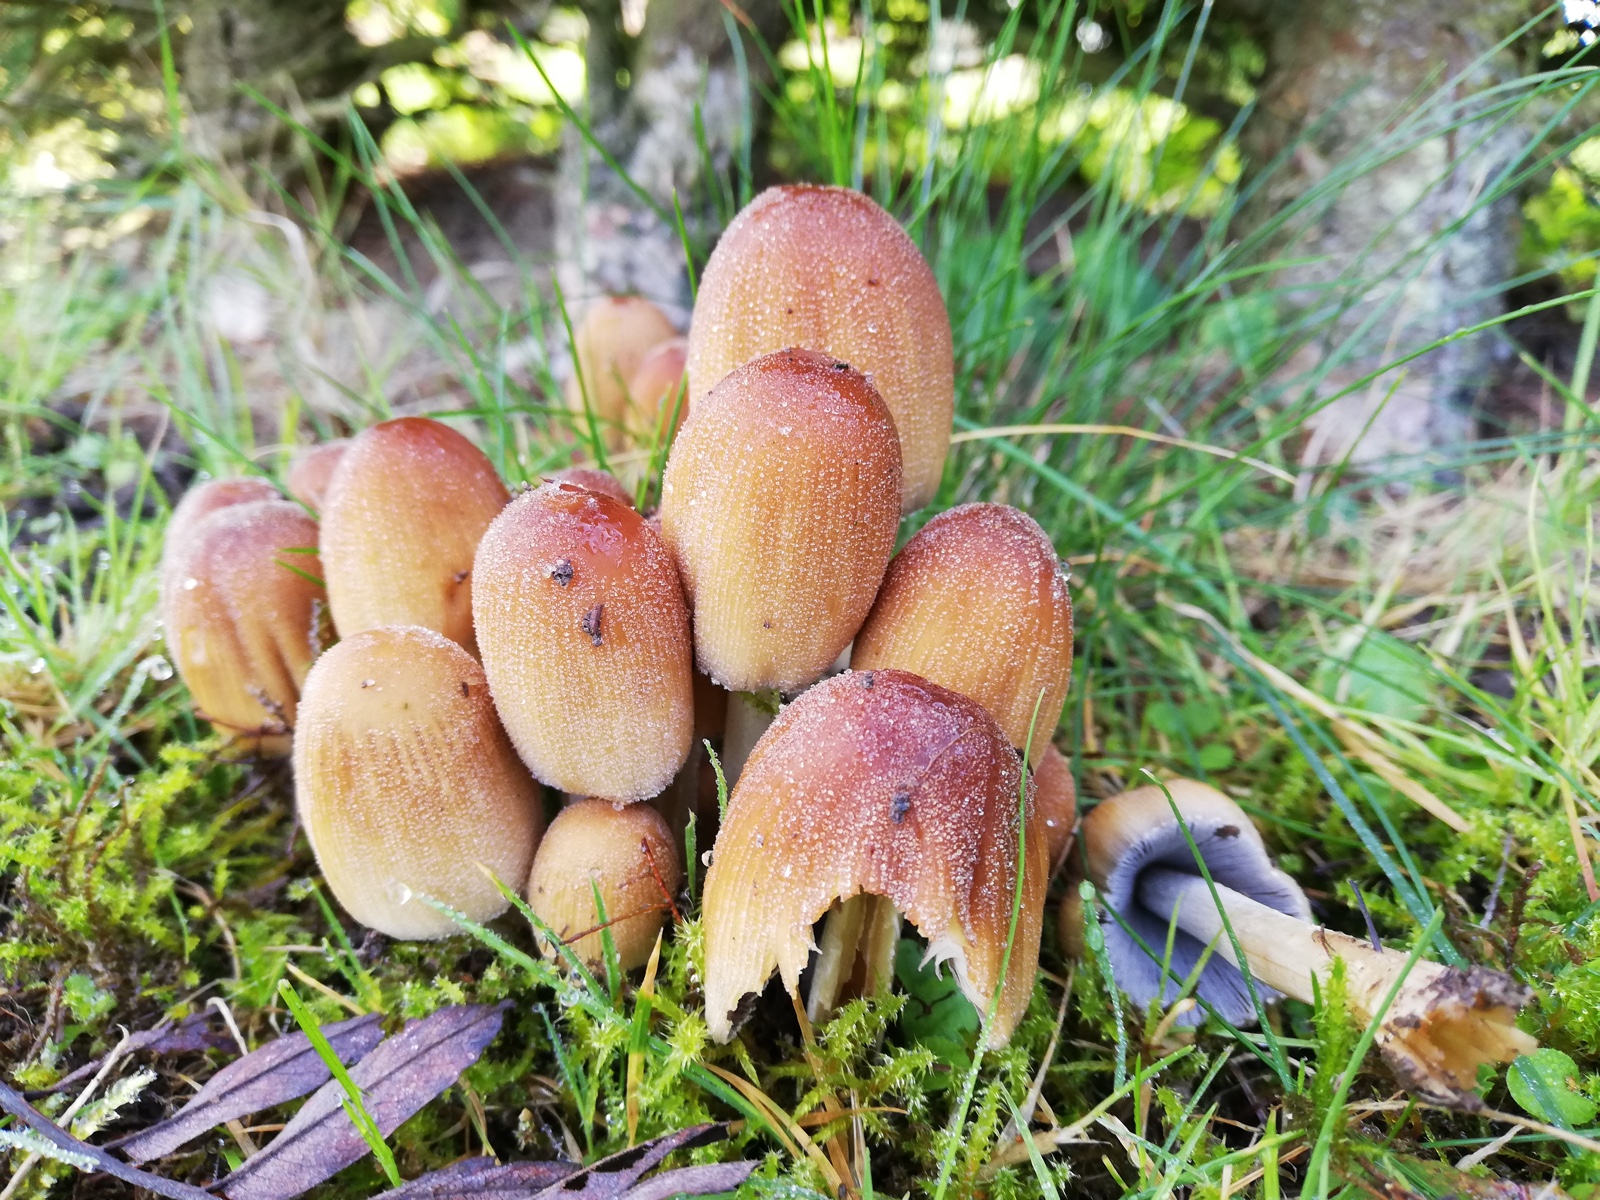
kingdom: Fungi
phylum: Basidiomycota
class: Agaricomycetes
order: Agaricales
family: Psathyrellaceae
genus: Coprinellus
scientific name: Coprinellus micaceus
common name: glimmer-blækhat
